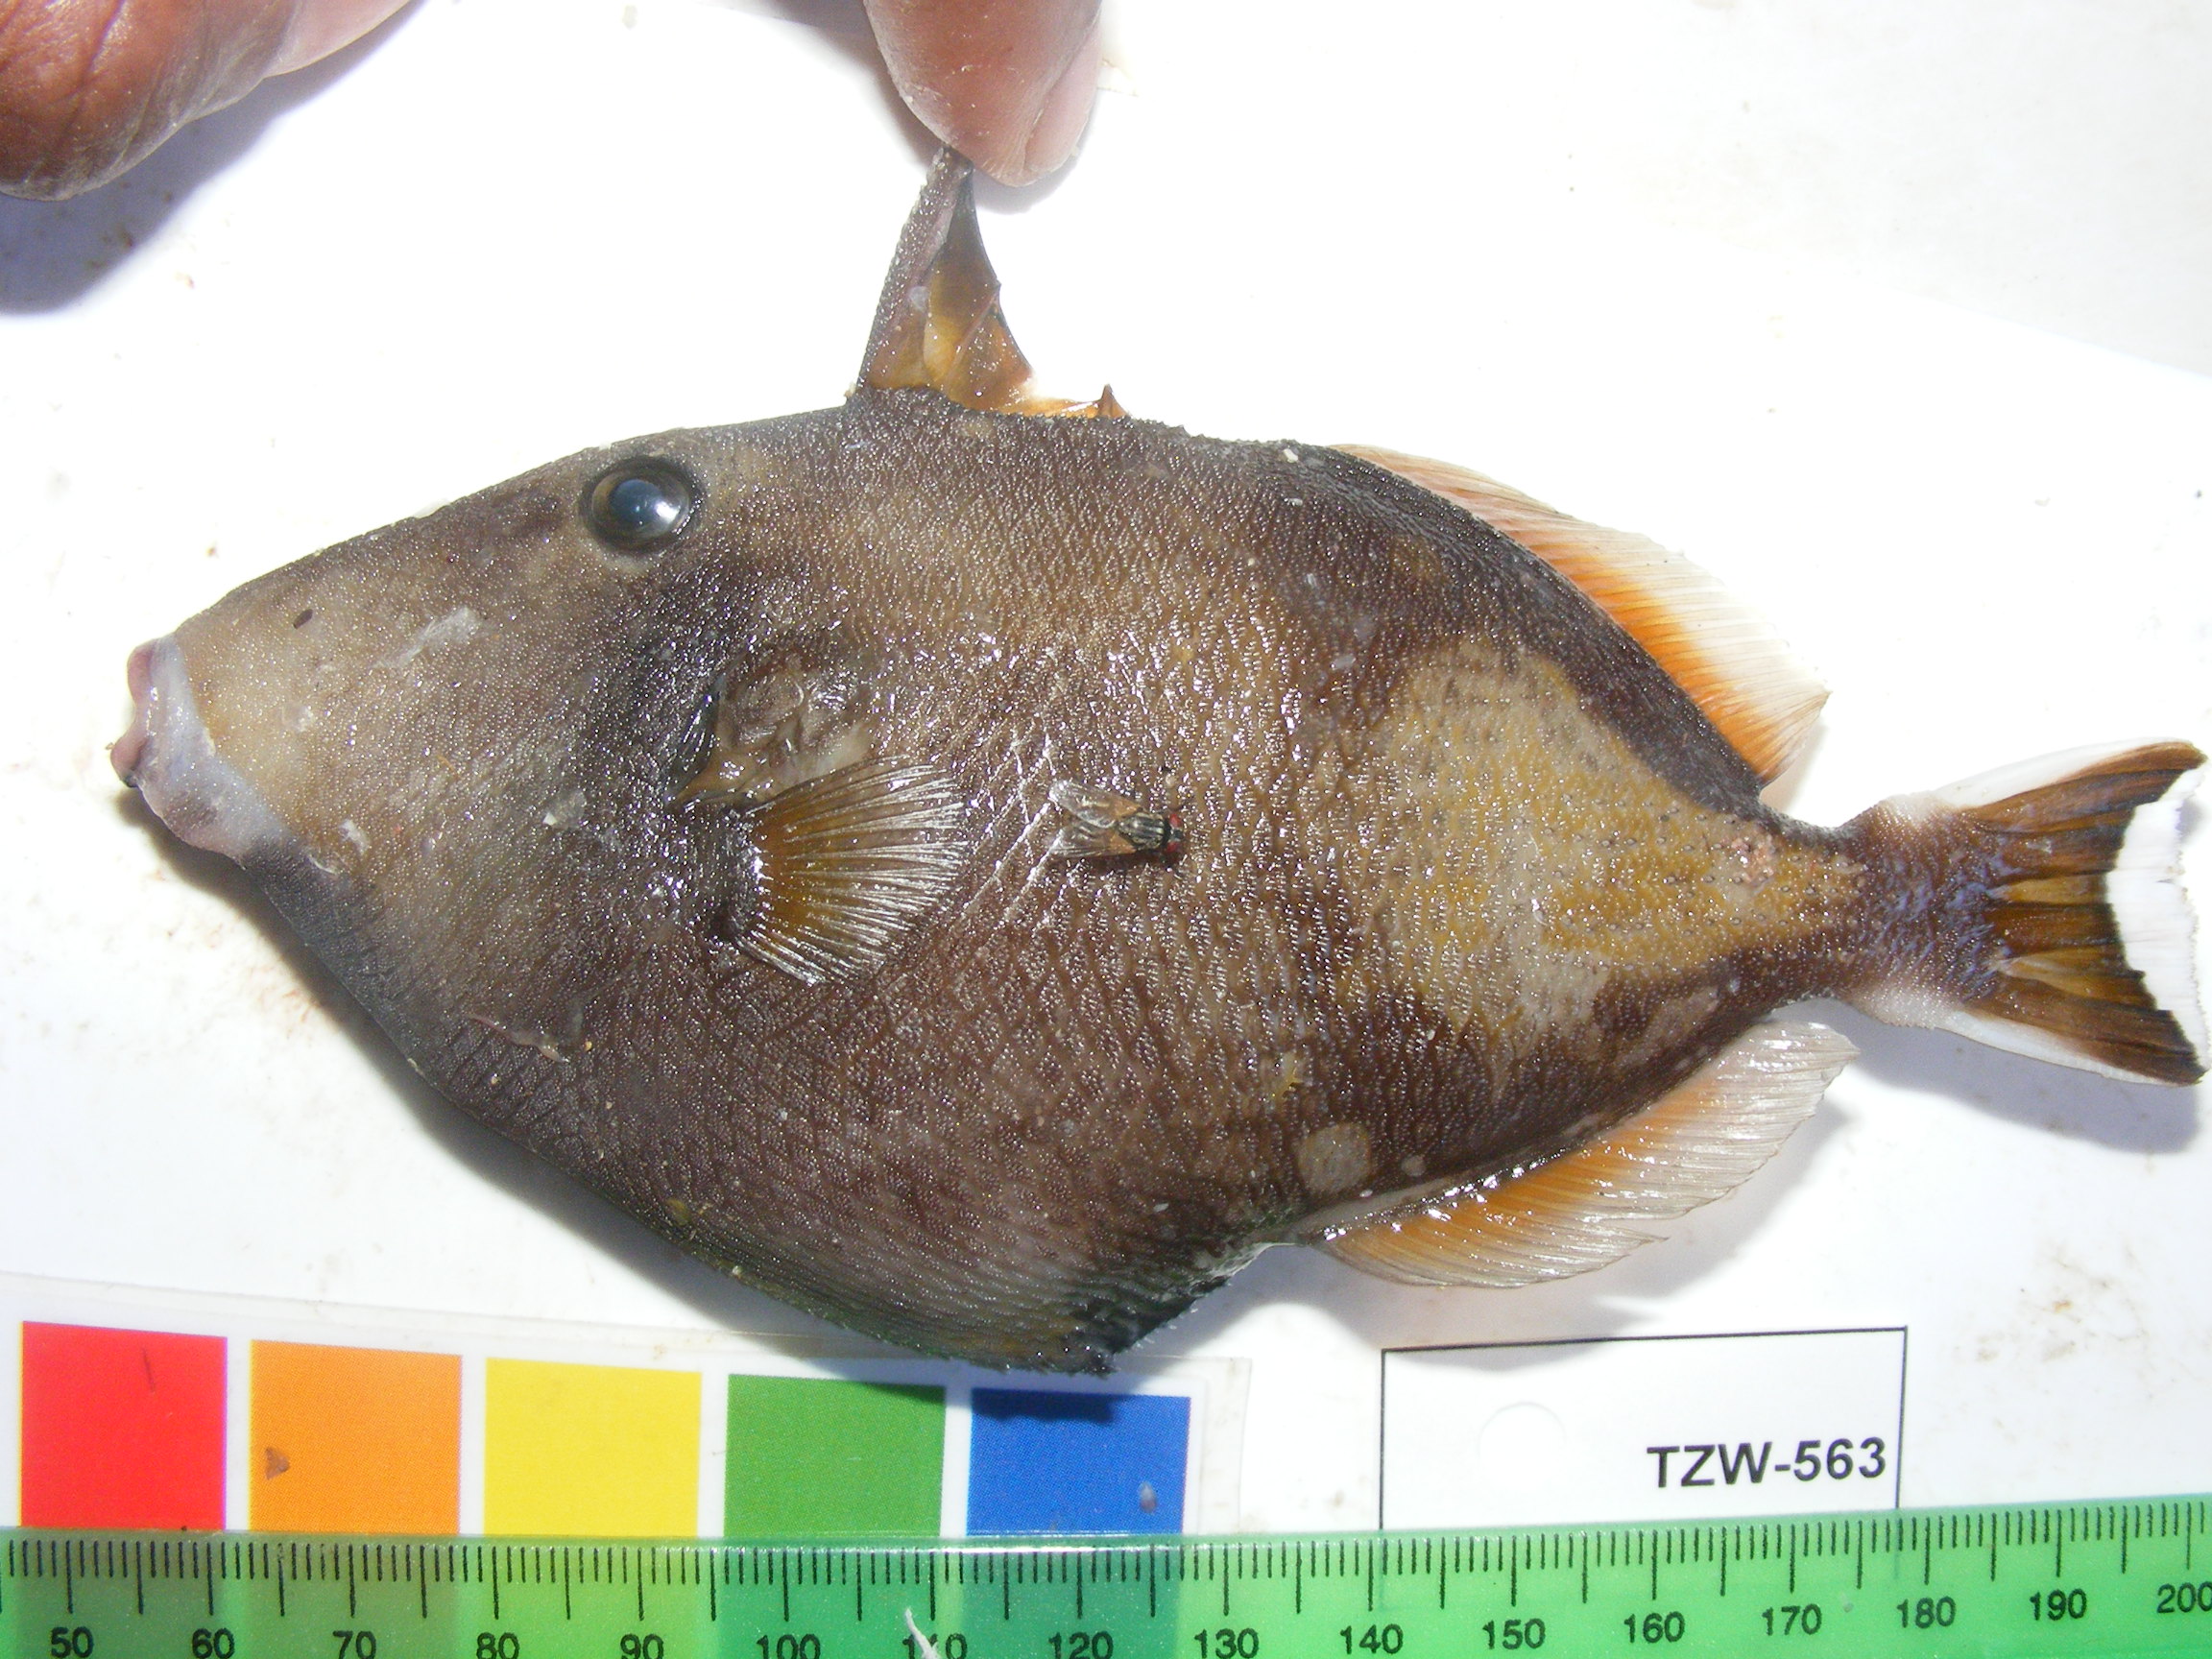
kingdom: Animalia
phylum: Chordata
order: Tetraodontiformes
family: Balistidae
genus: Sufflamen
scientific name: Sufflamen chrysopterum
